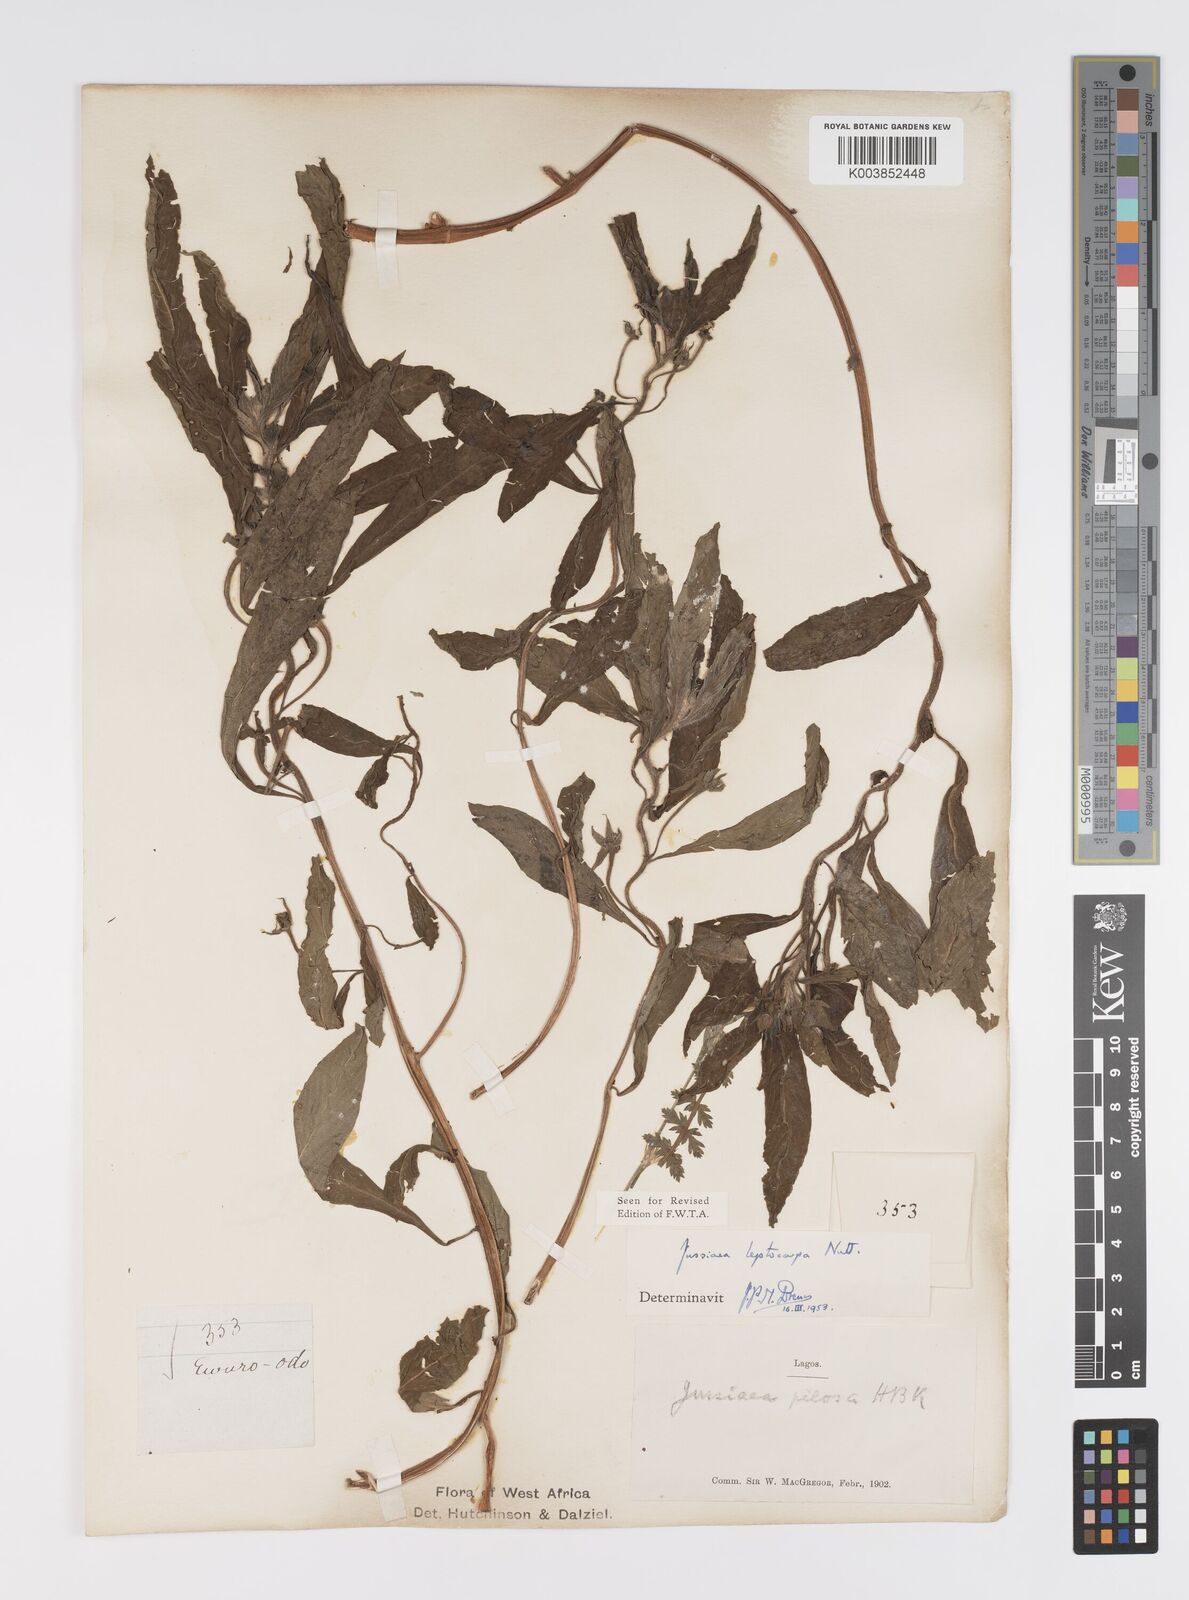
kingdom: Plantae
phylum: Tracheophyta
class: Magnoliopsida
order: Myrtales
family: Onagraceae
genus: Ludwigia
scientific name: Ludwigia leptocarpa
